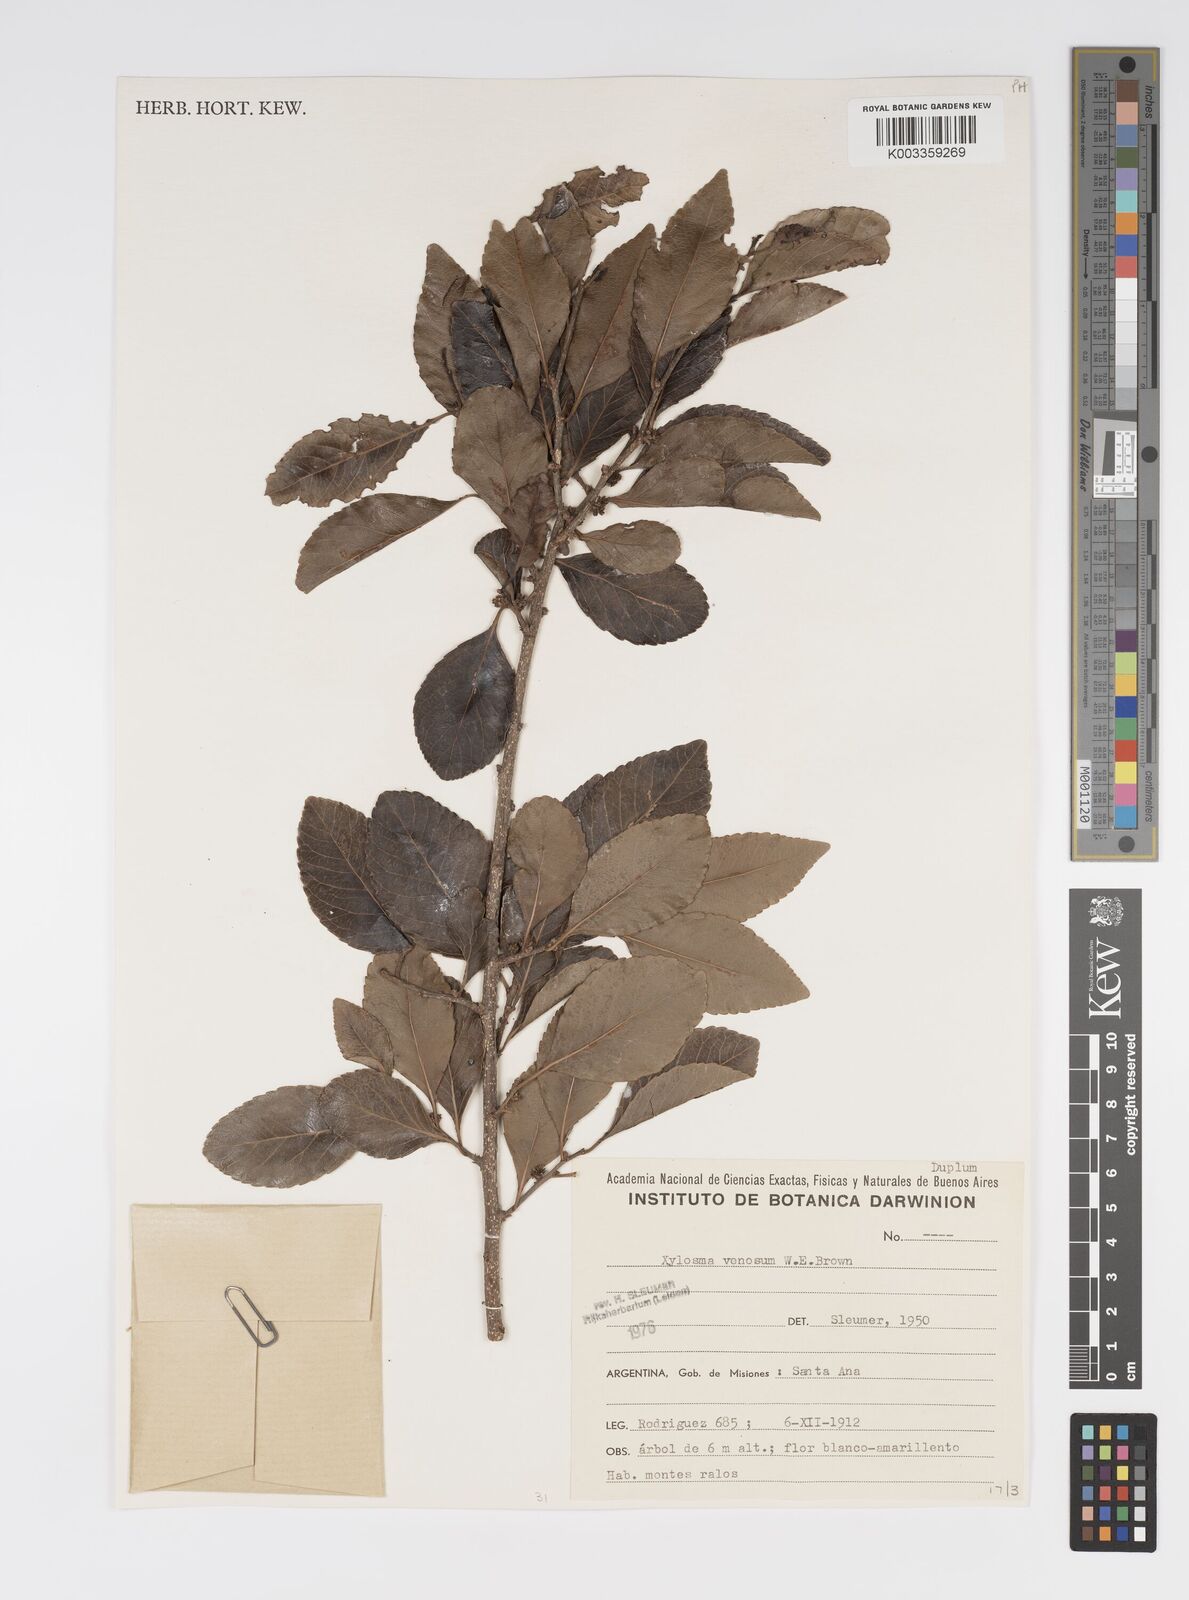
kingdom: Plantae
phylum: Tracheophyta
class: Magnoliopsida
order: Malpighiales
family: Salicaceae
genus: Xylosma
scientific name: Xylosma venosa
